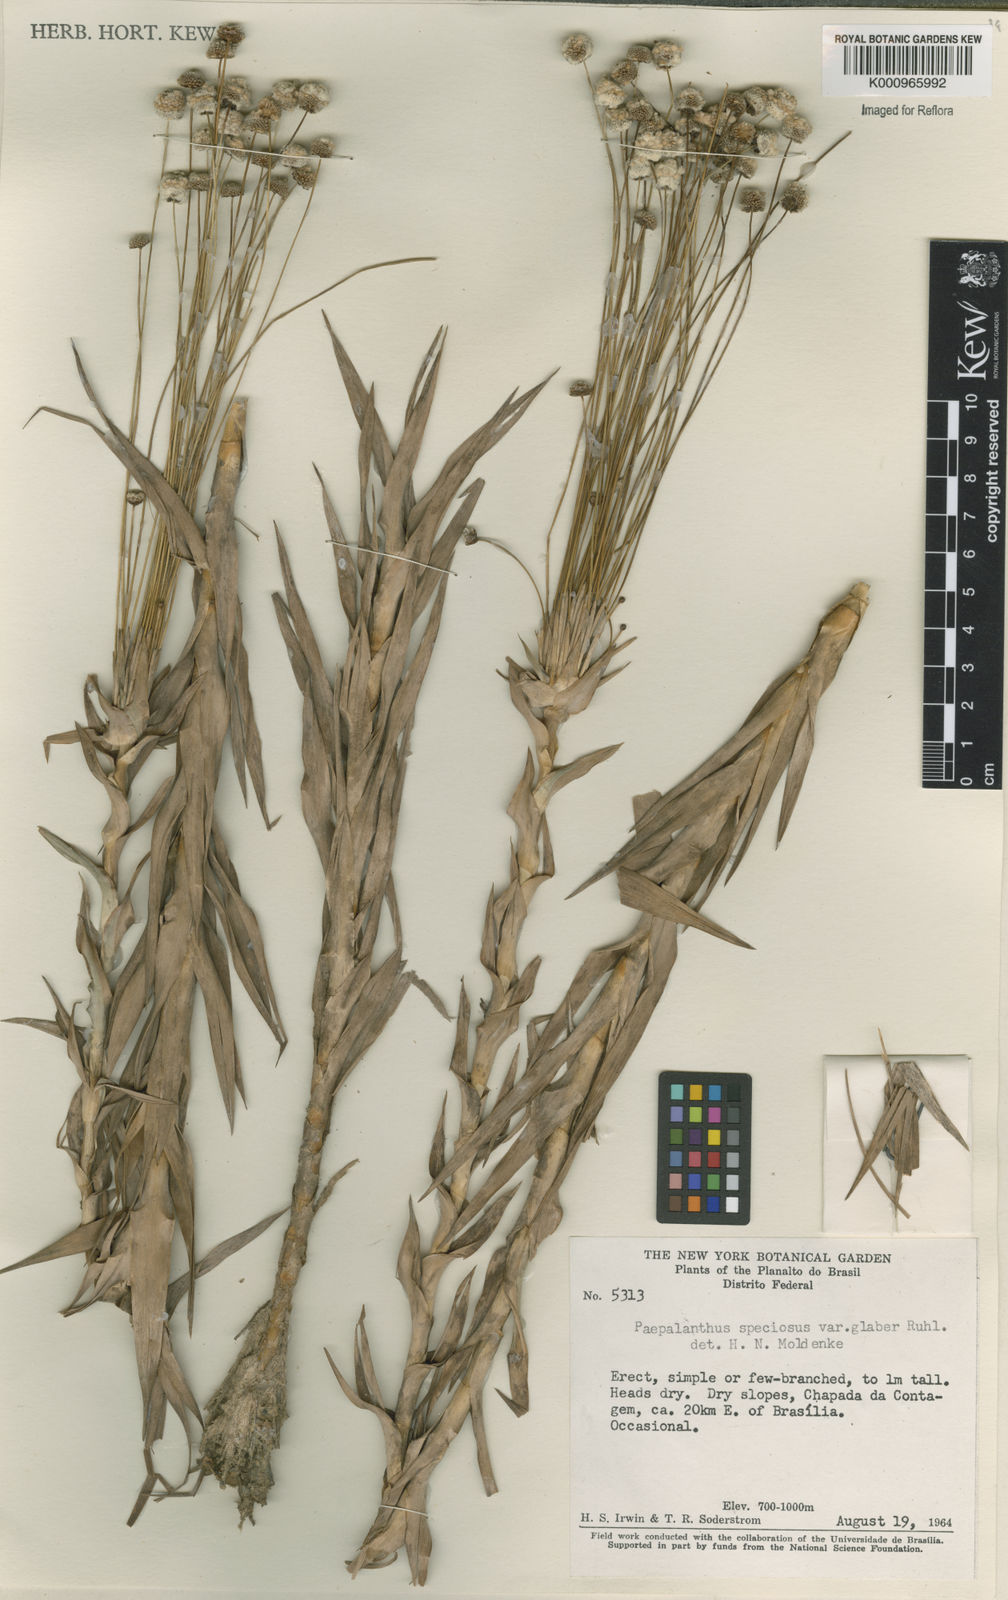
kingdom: Plantae
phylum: Tracheophyta
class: Liliopsida
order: Poales
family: Eriocaulaceae
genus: Paepalanthus
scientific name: Paepalanthus erectifolius
